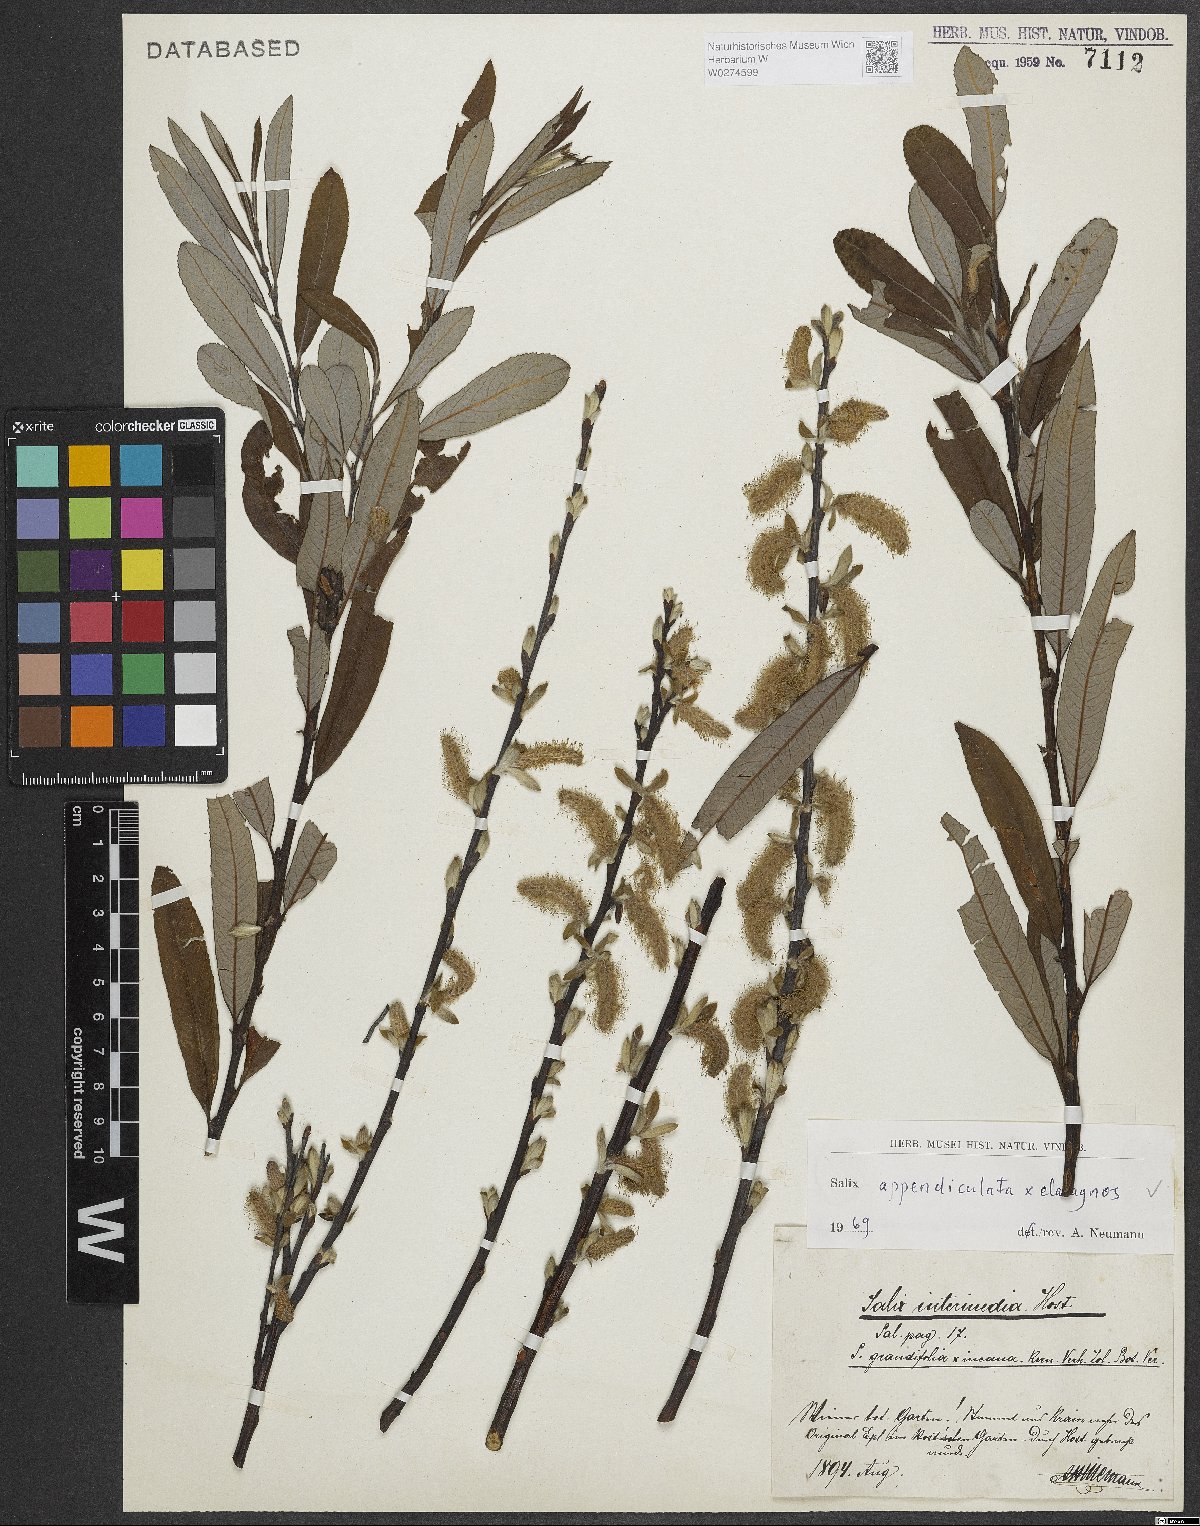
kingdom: Plantae
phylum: Tracheophyta
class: Magnoliopsida
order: Malpighiales
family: Salicaceae
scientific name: Salicaceae
